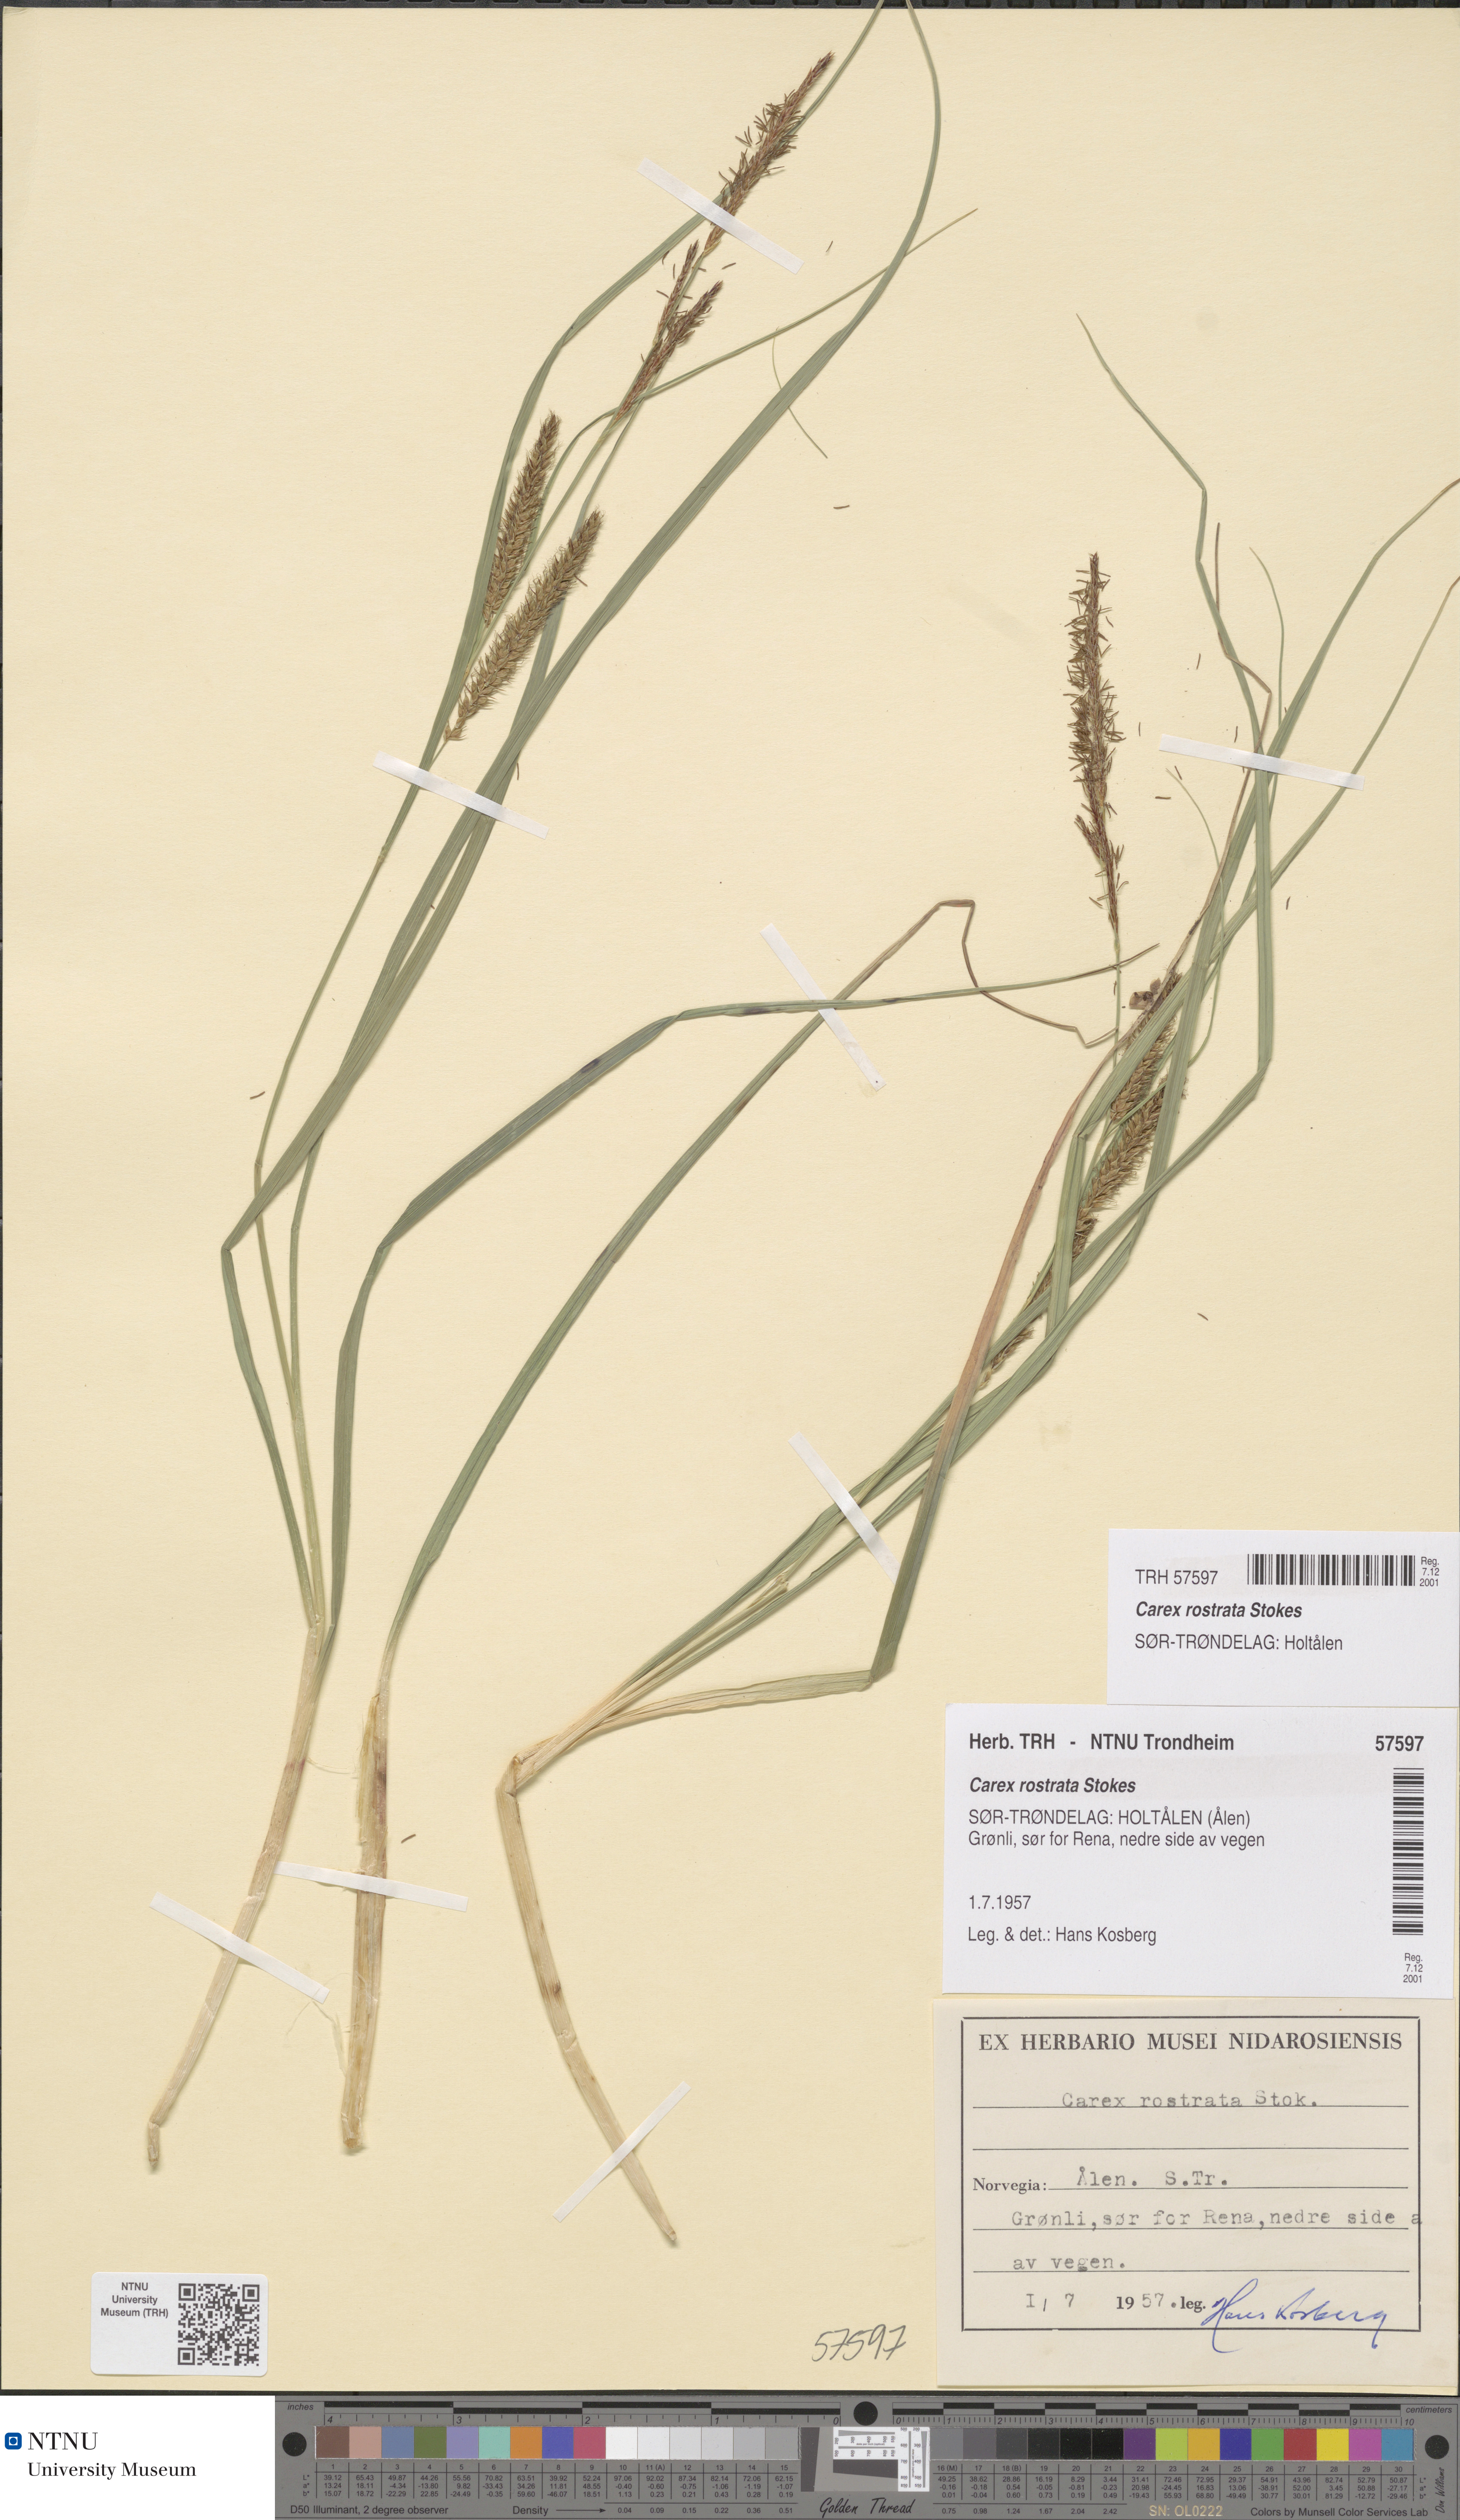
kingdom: Plantae
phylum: Tracheophyta
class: Liliopsida
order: Poales
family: Cyperaceae
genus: Carex
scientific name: Carex rostrata
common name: Bottle sedge
